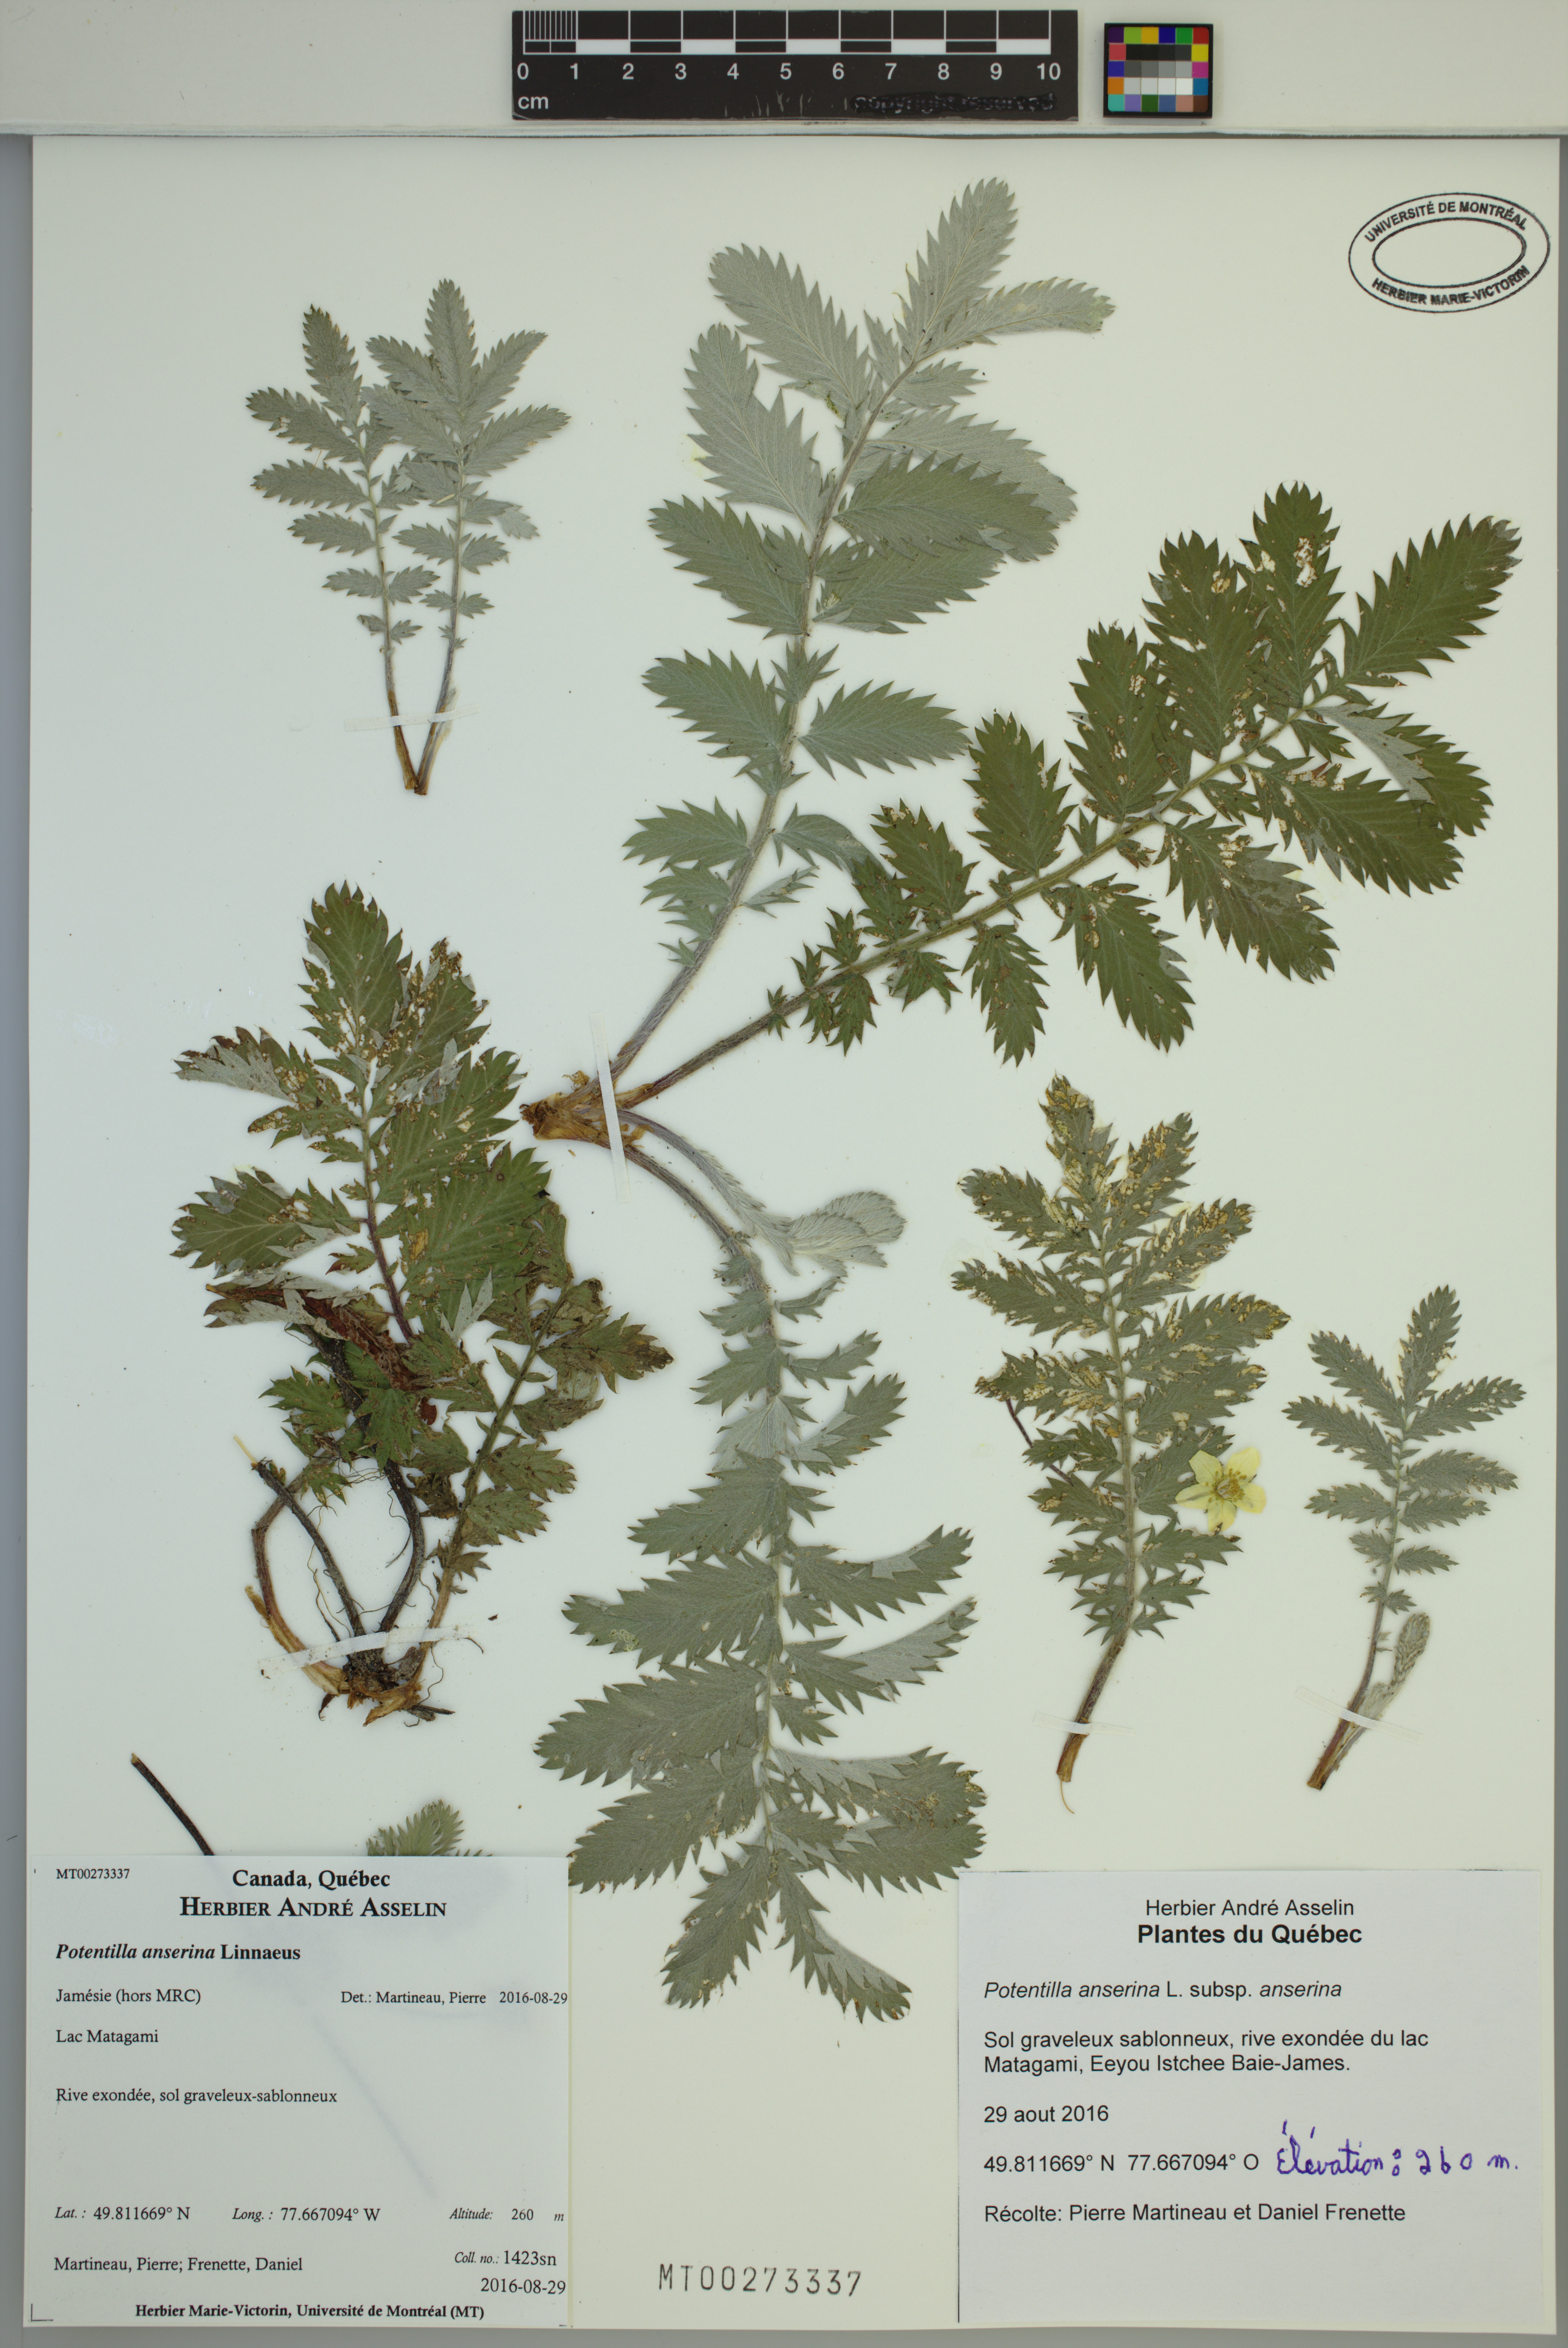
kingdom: Plantae
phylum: Tracheophyta
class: Magnoliopsida
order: Rosales
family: Rosaceae
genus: Argentina
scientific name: Argentina anserina
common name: Common silverweed
